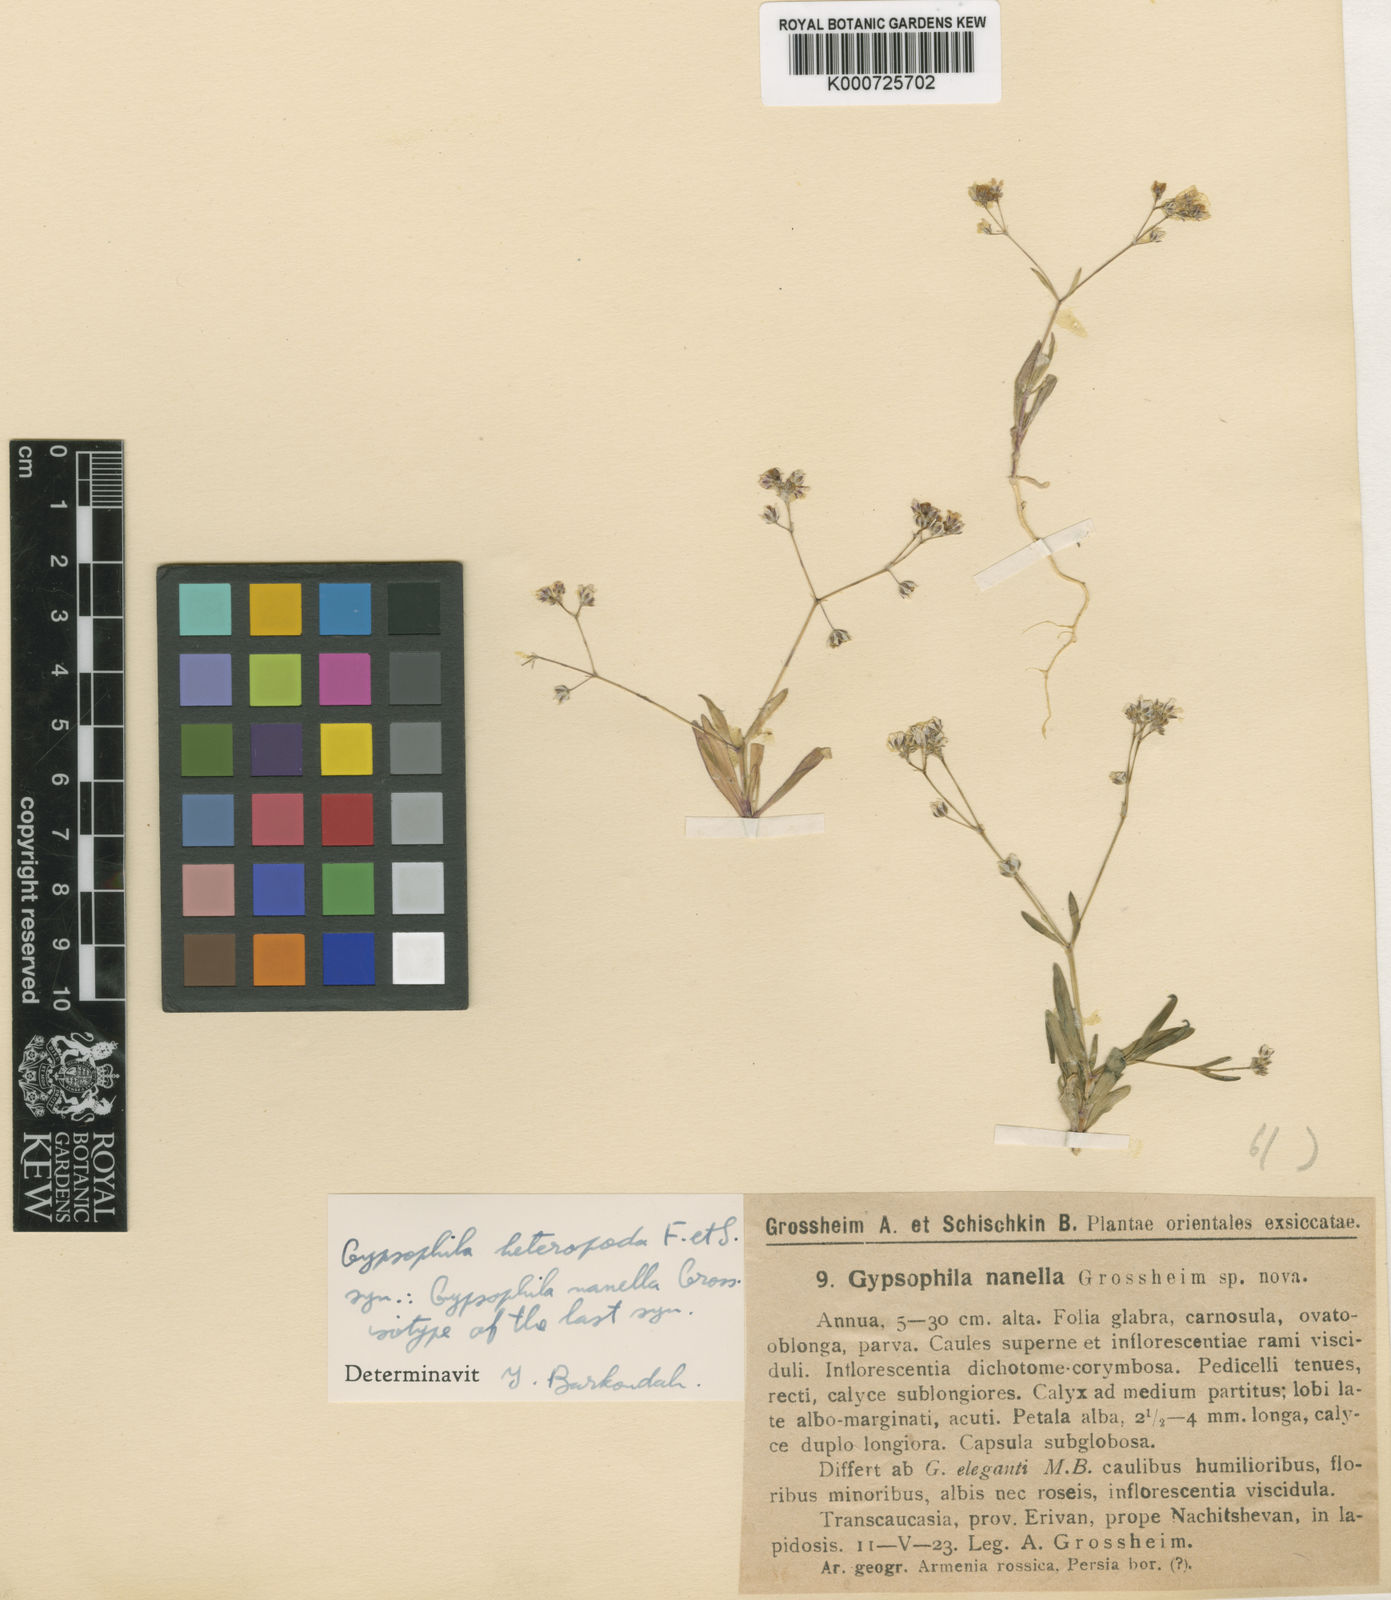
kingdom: Plantae
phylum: Tracheophyta
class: Magnoliopsida
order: Caryophyllales
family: Caryophyllaceae
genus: Gypsophila
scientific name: Gypsophila heteropoda
